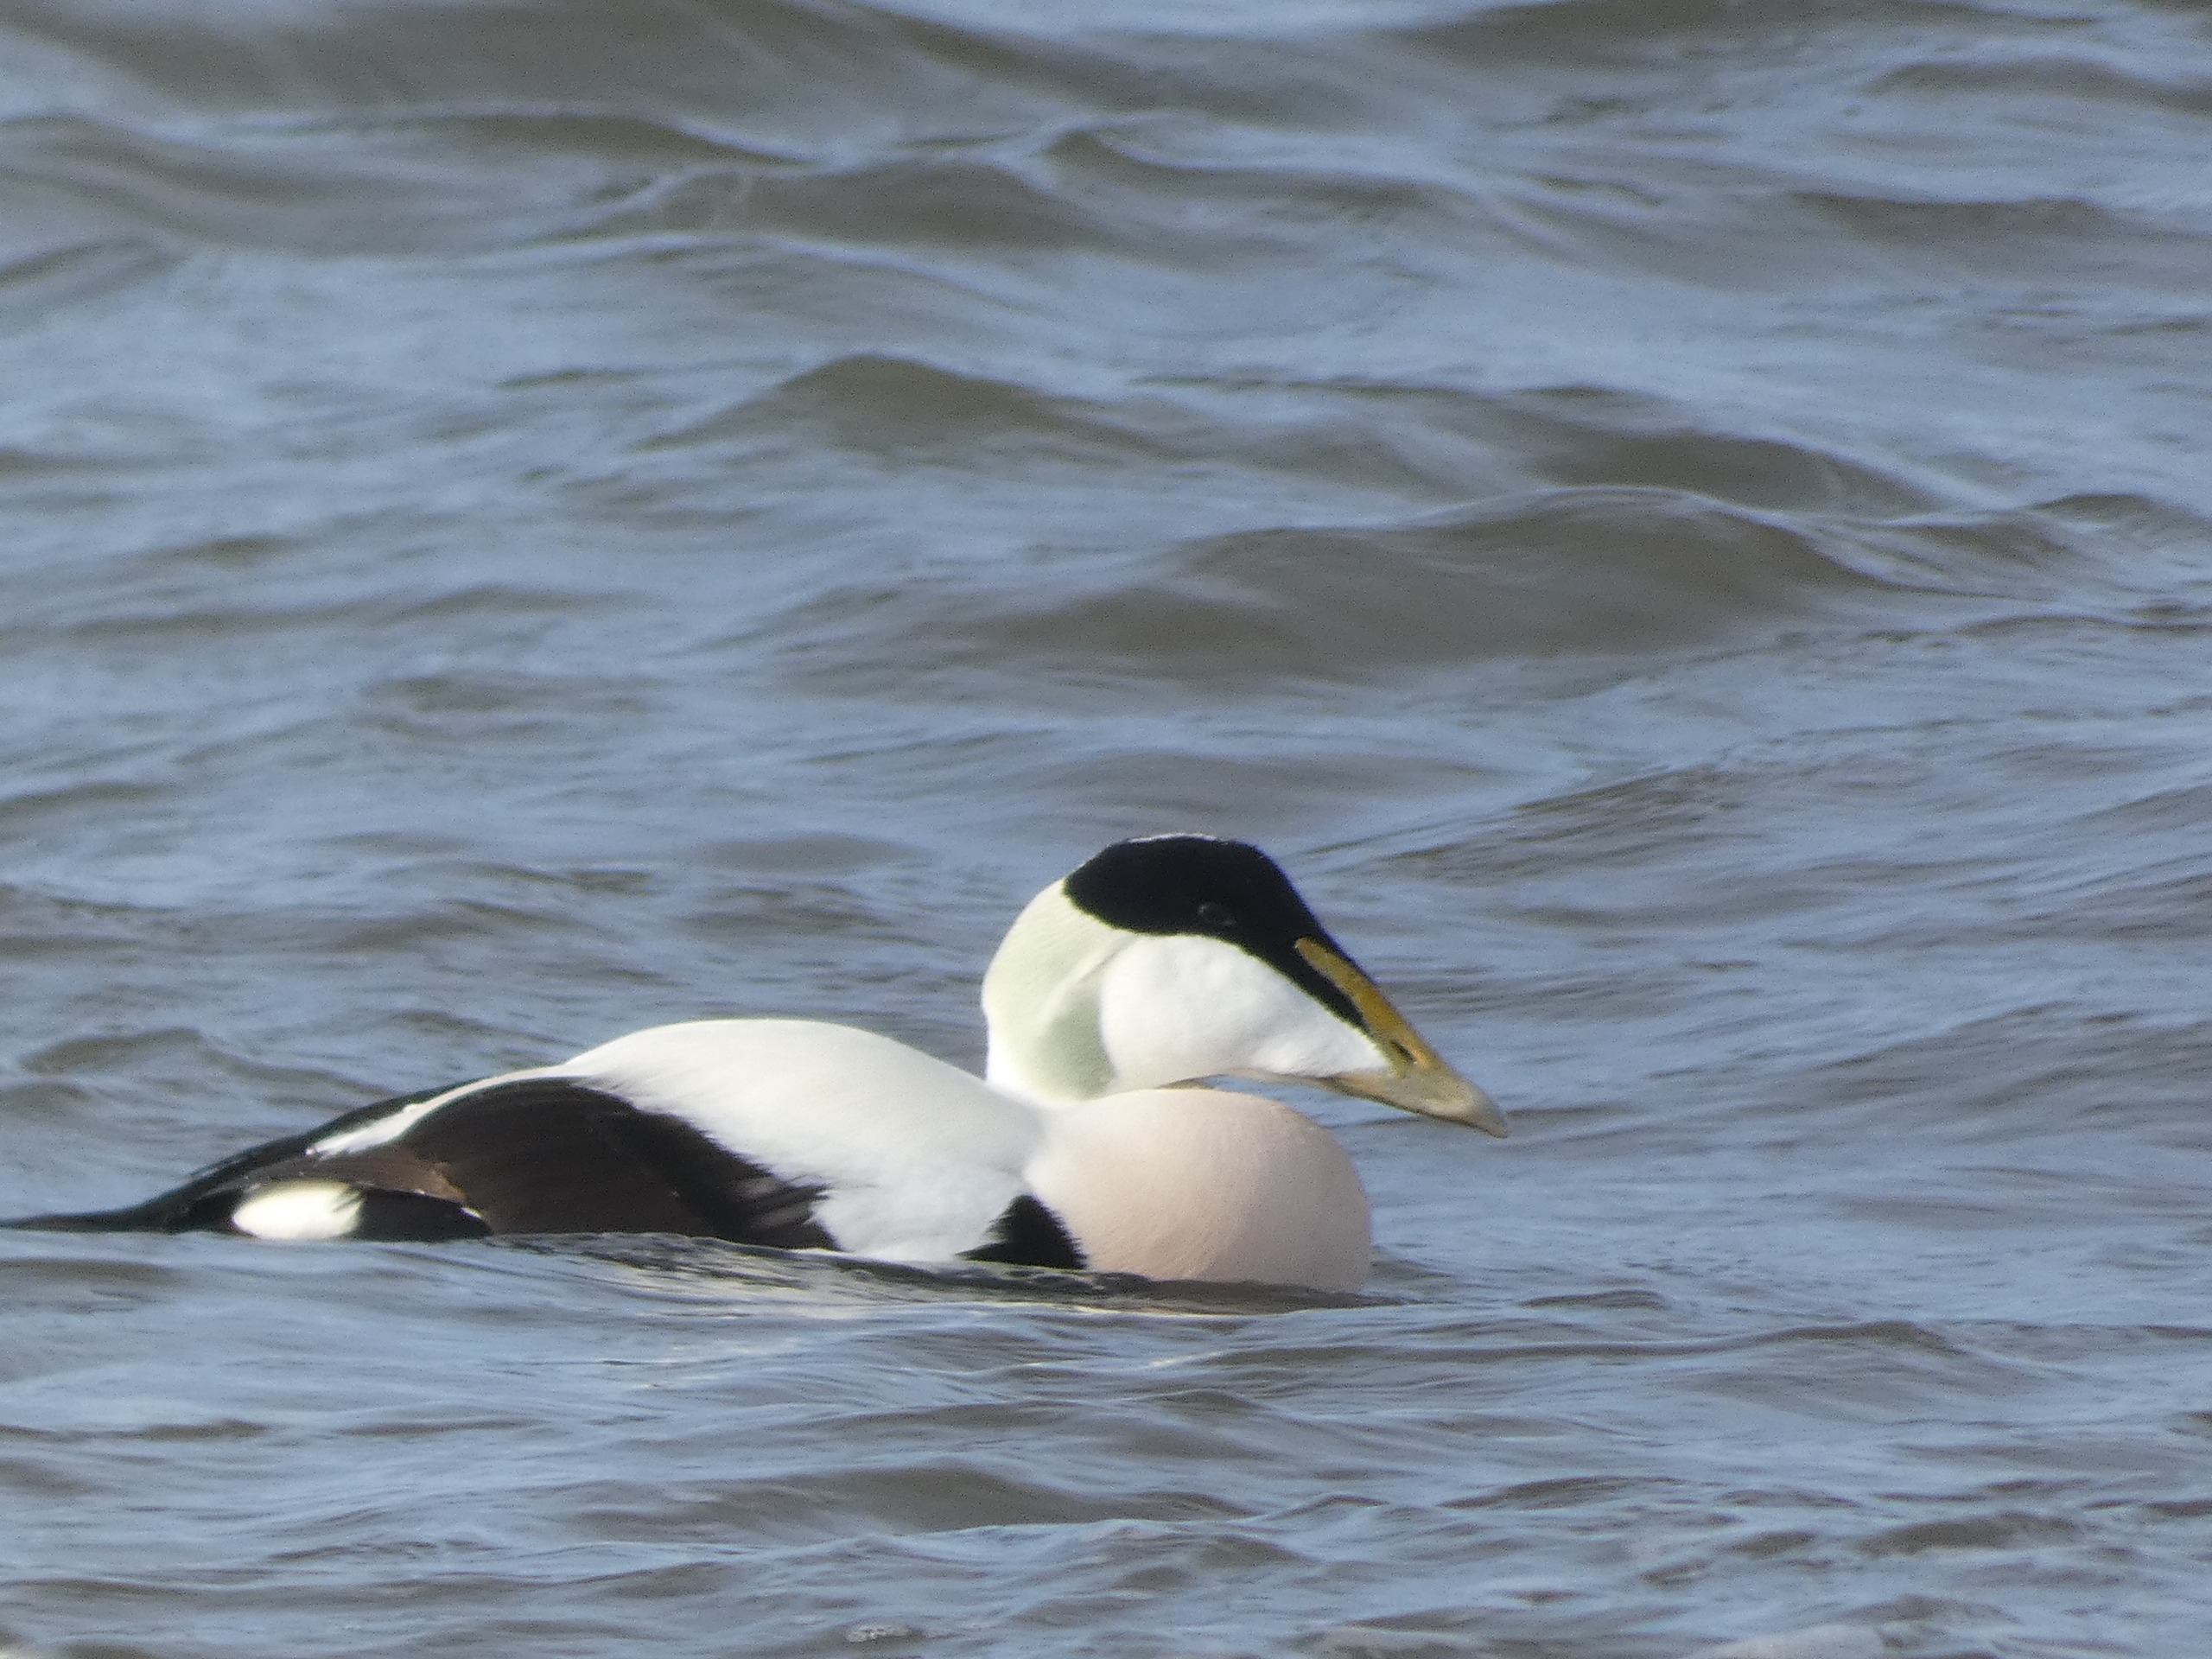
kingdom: Animalia
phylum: Chordata
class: Aves
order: Anseriformes
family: Anatidae
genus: Somateria
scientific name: Somateria mollissima
